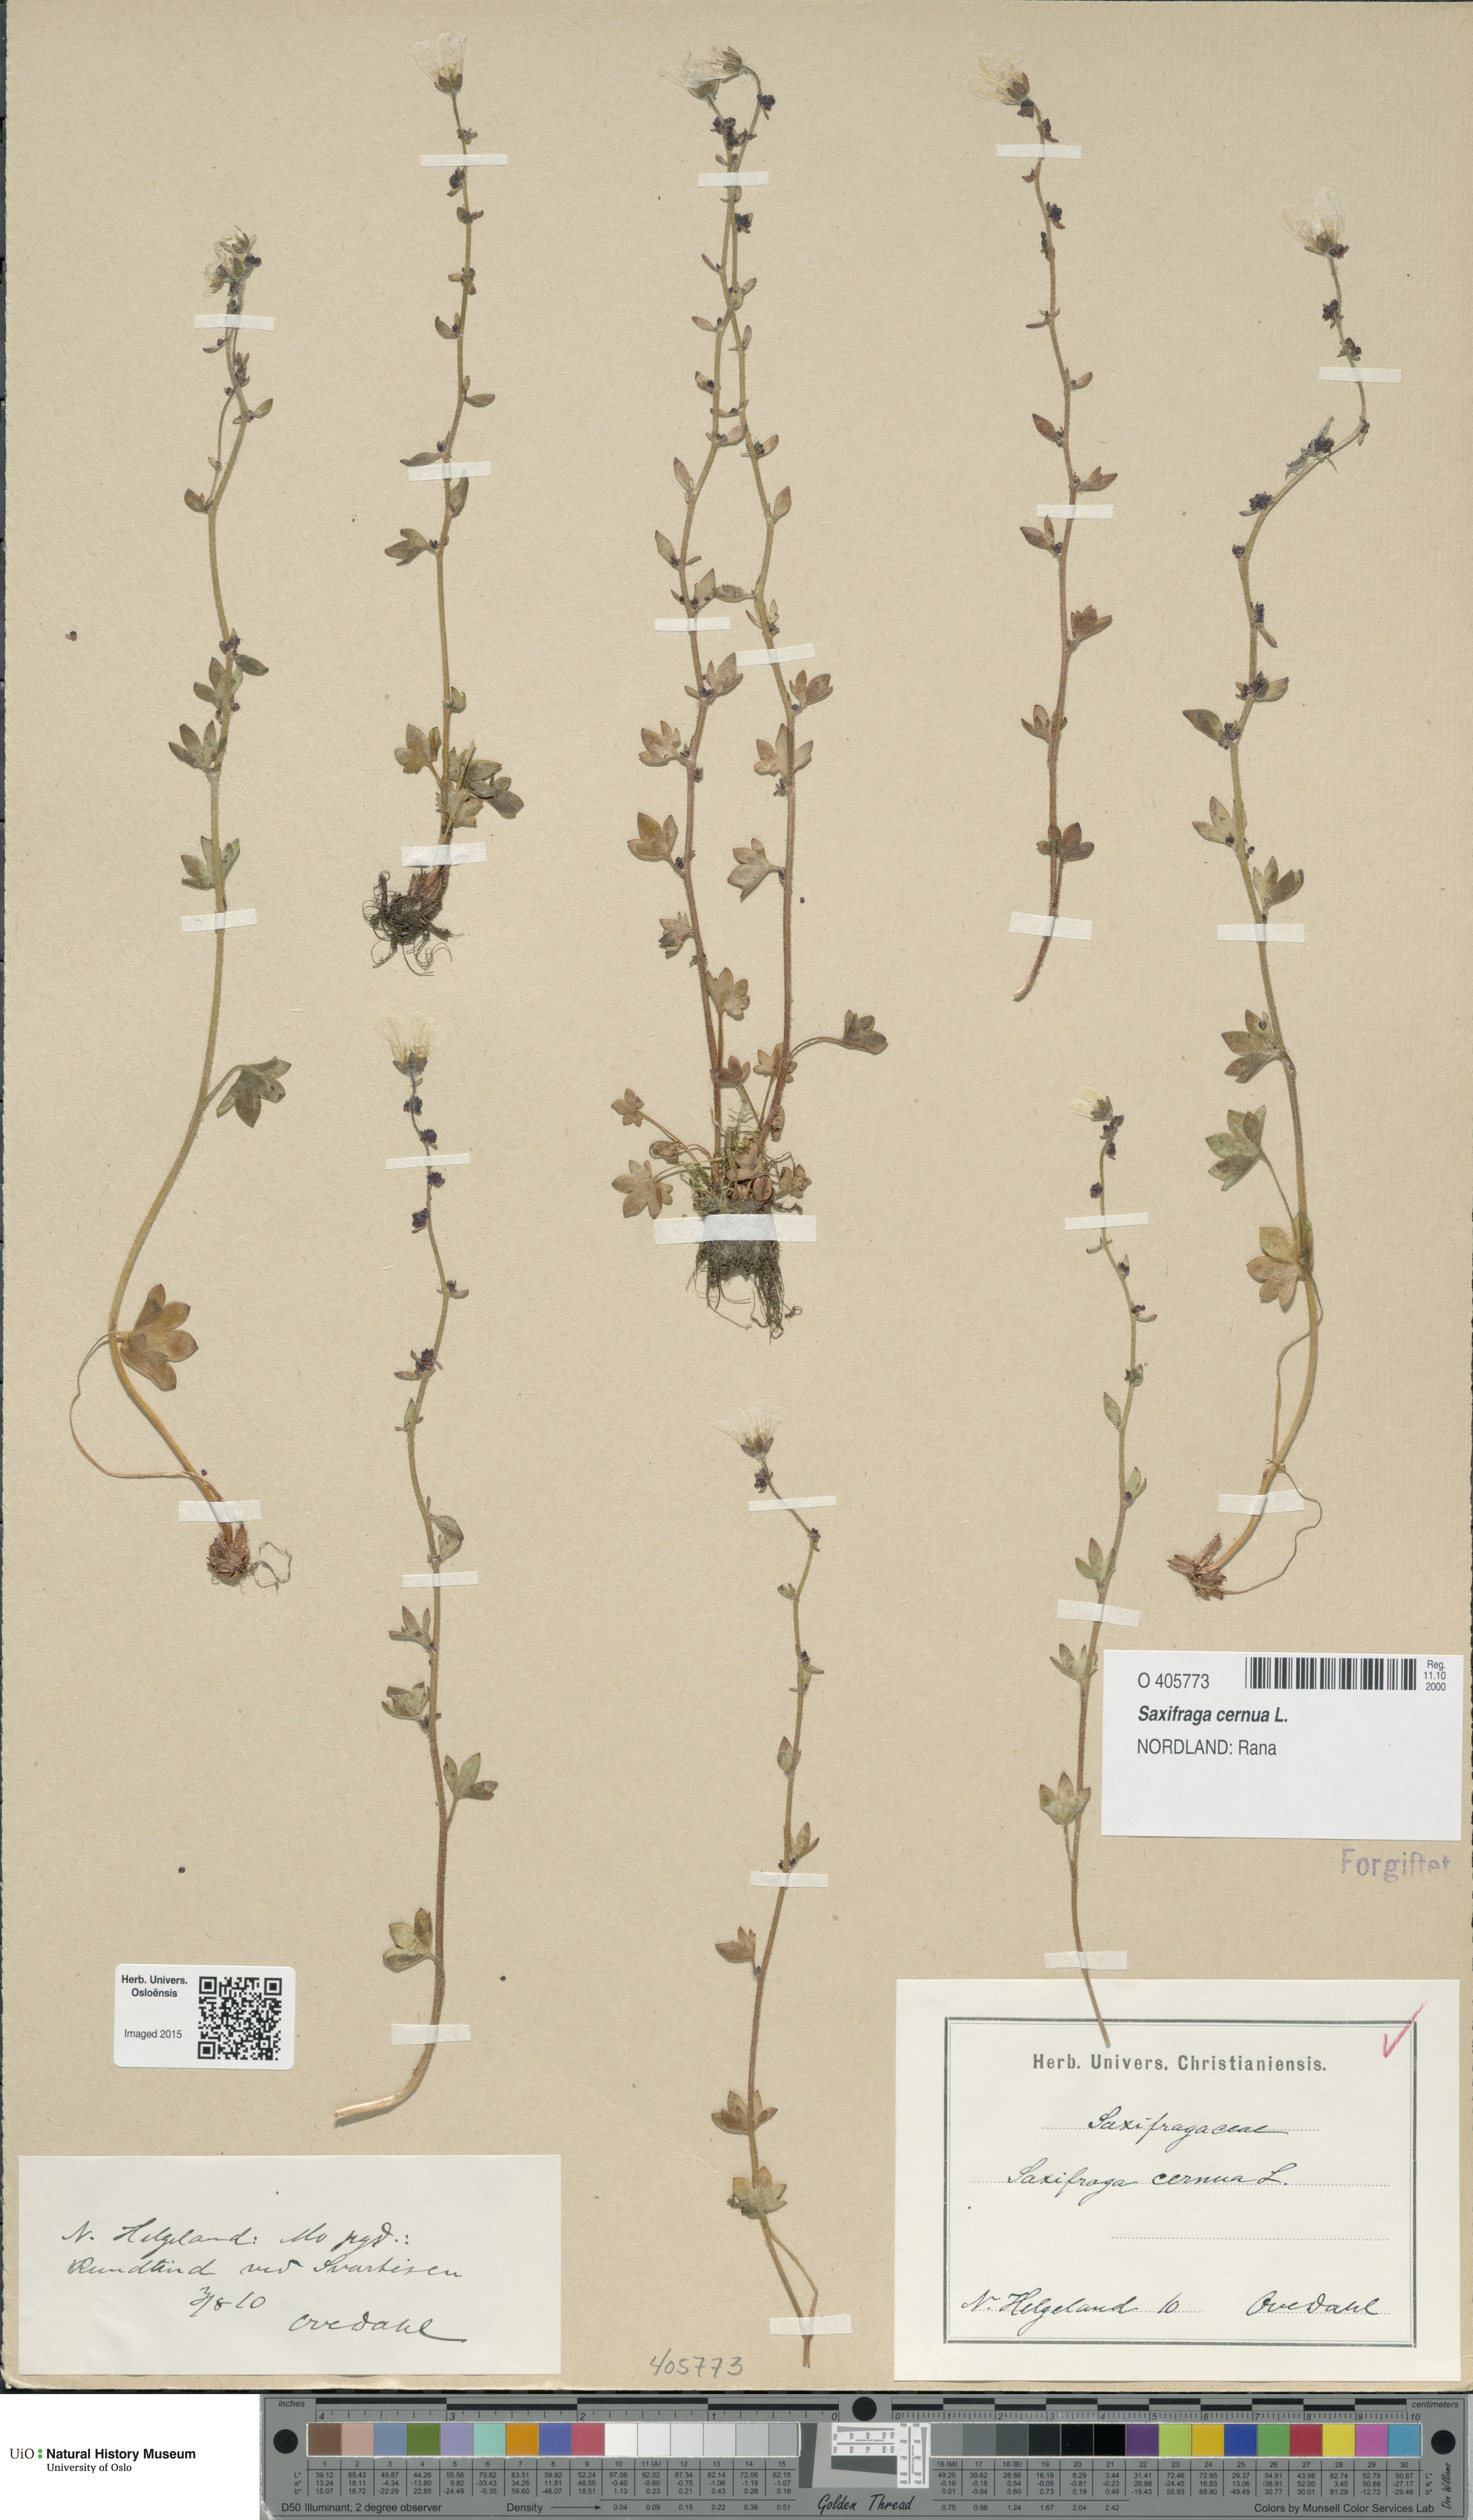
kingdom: Plantae
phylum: Tracheophyta
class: Magnoliopsida
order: Saxifragales
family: Saxifragaceae
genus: Saxifraga
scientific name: Saxifraga cernua
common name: Drooping saxifrage
